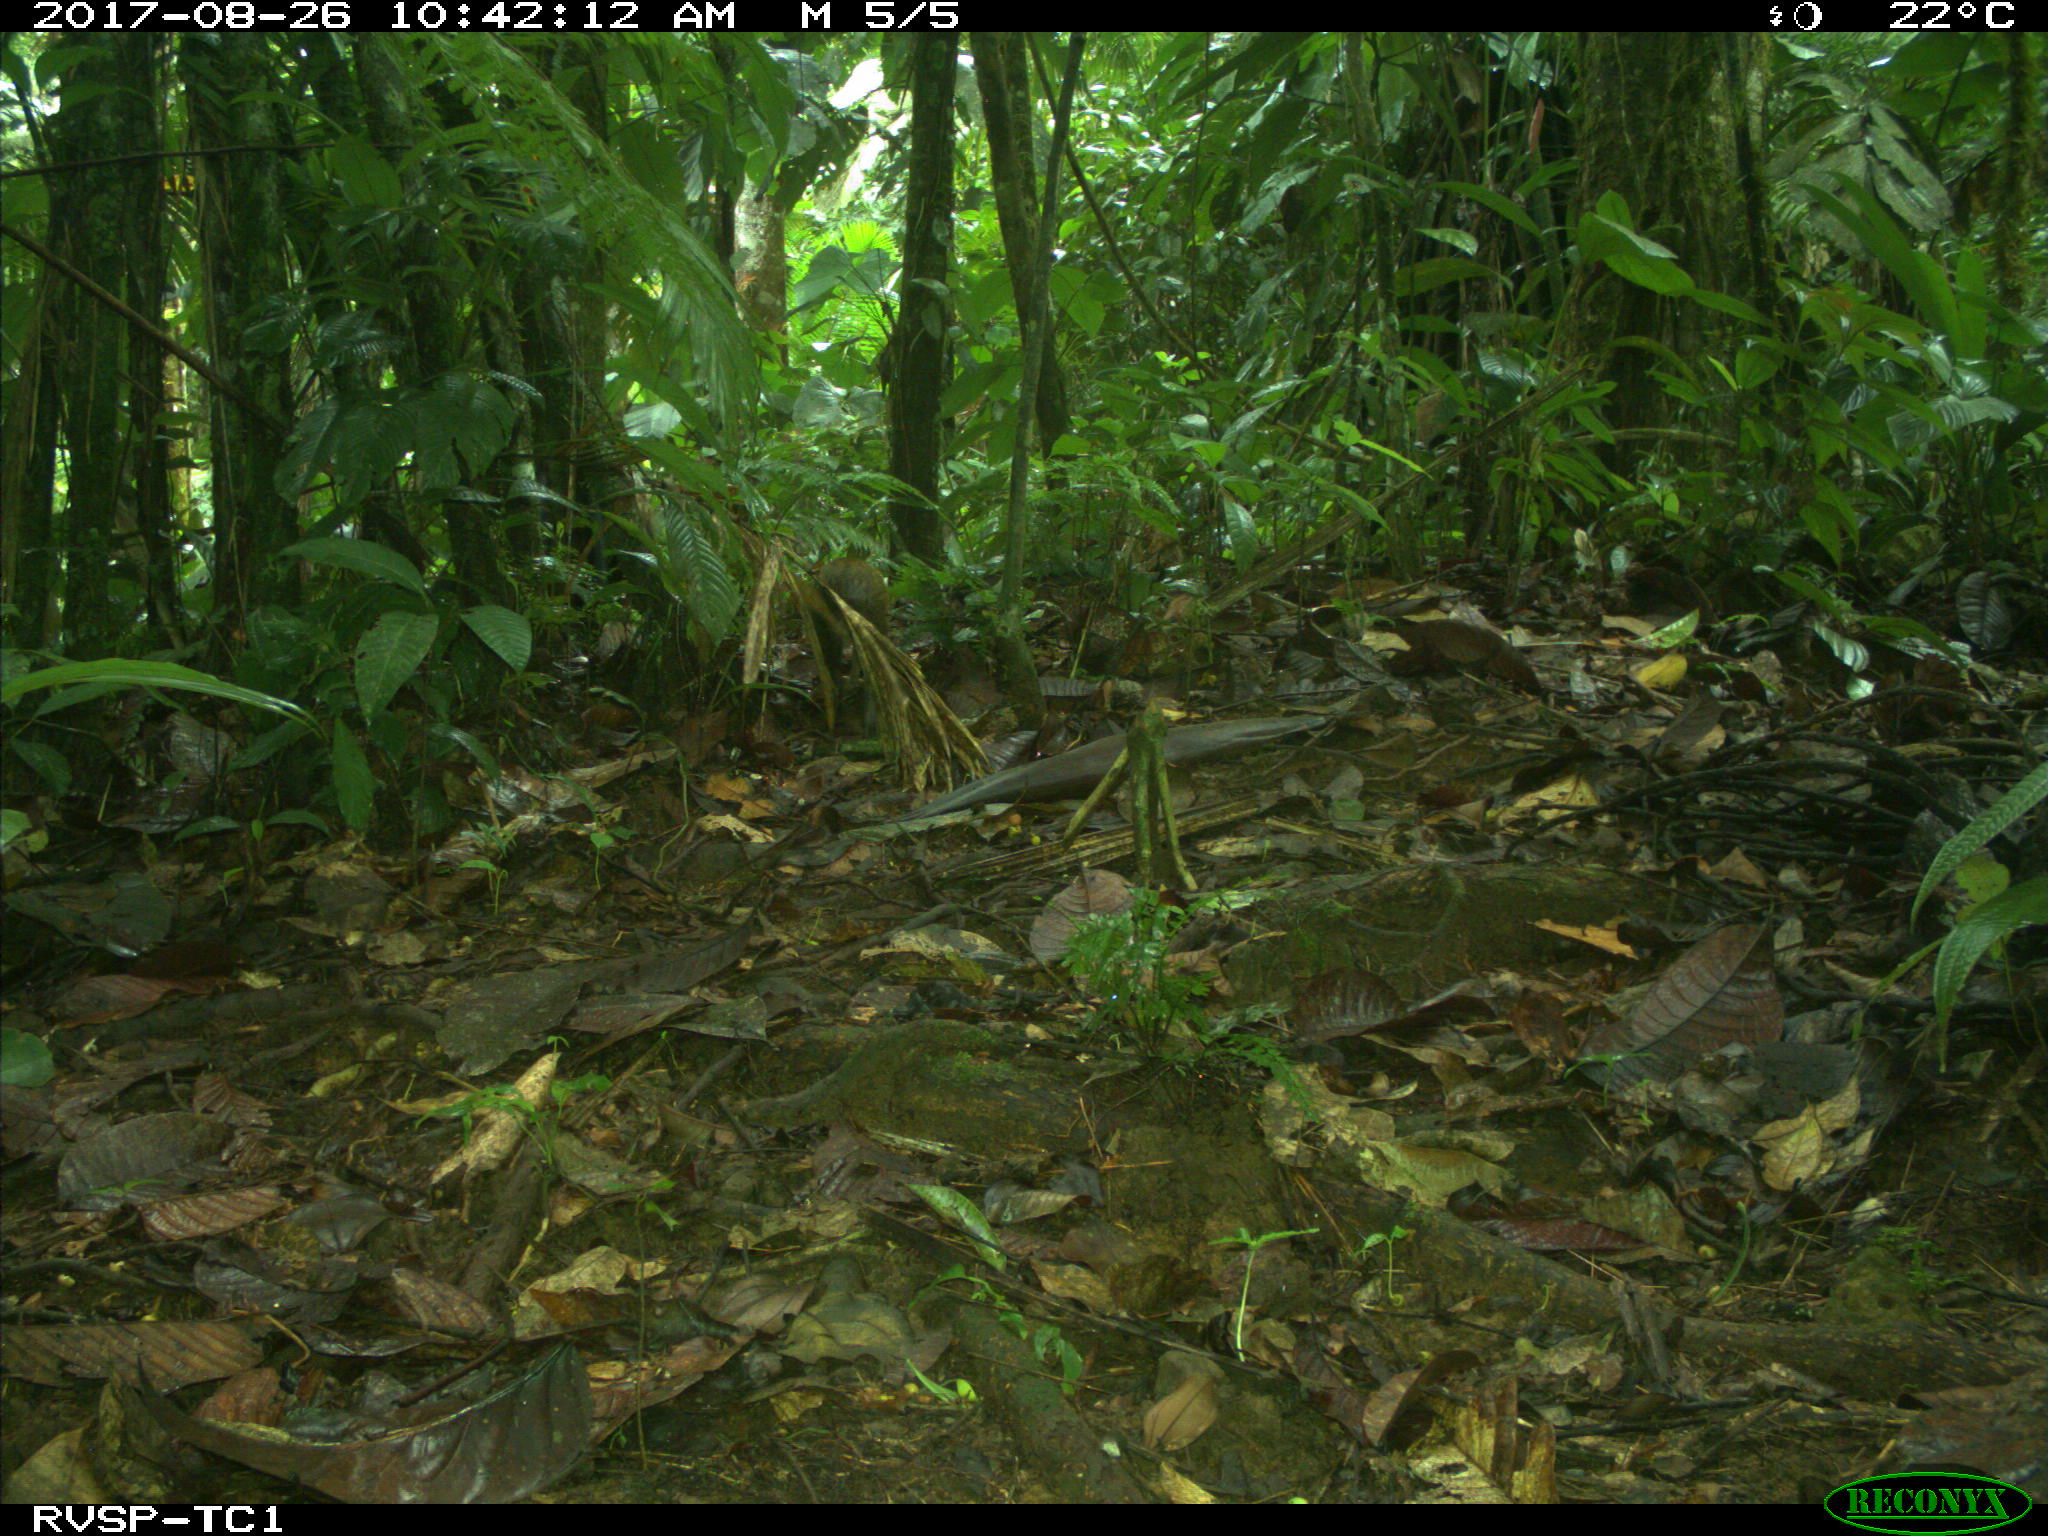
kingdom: Animalia
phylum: Chordata
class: Mammalia
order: Rodentia
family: Dasyproctidae
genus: Dasyprocta
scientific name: Dasyprocta punctata
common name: Central american agouti
